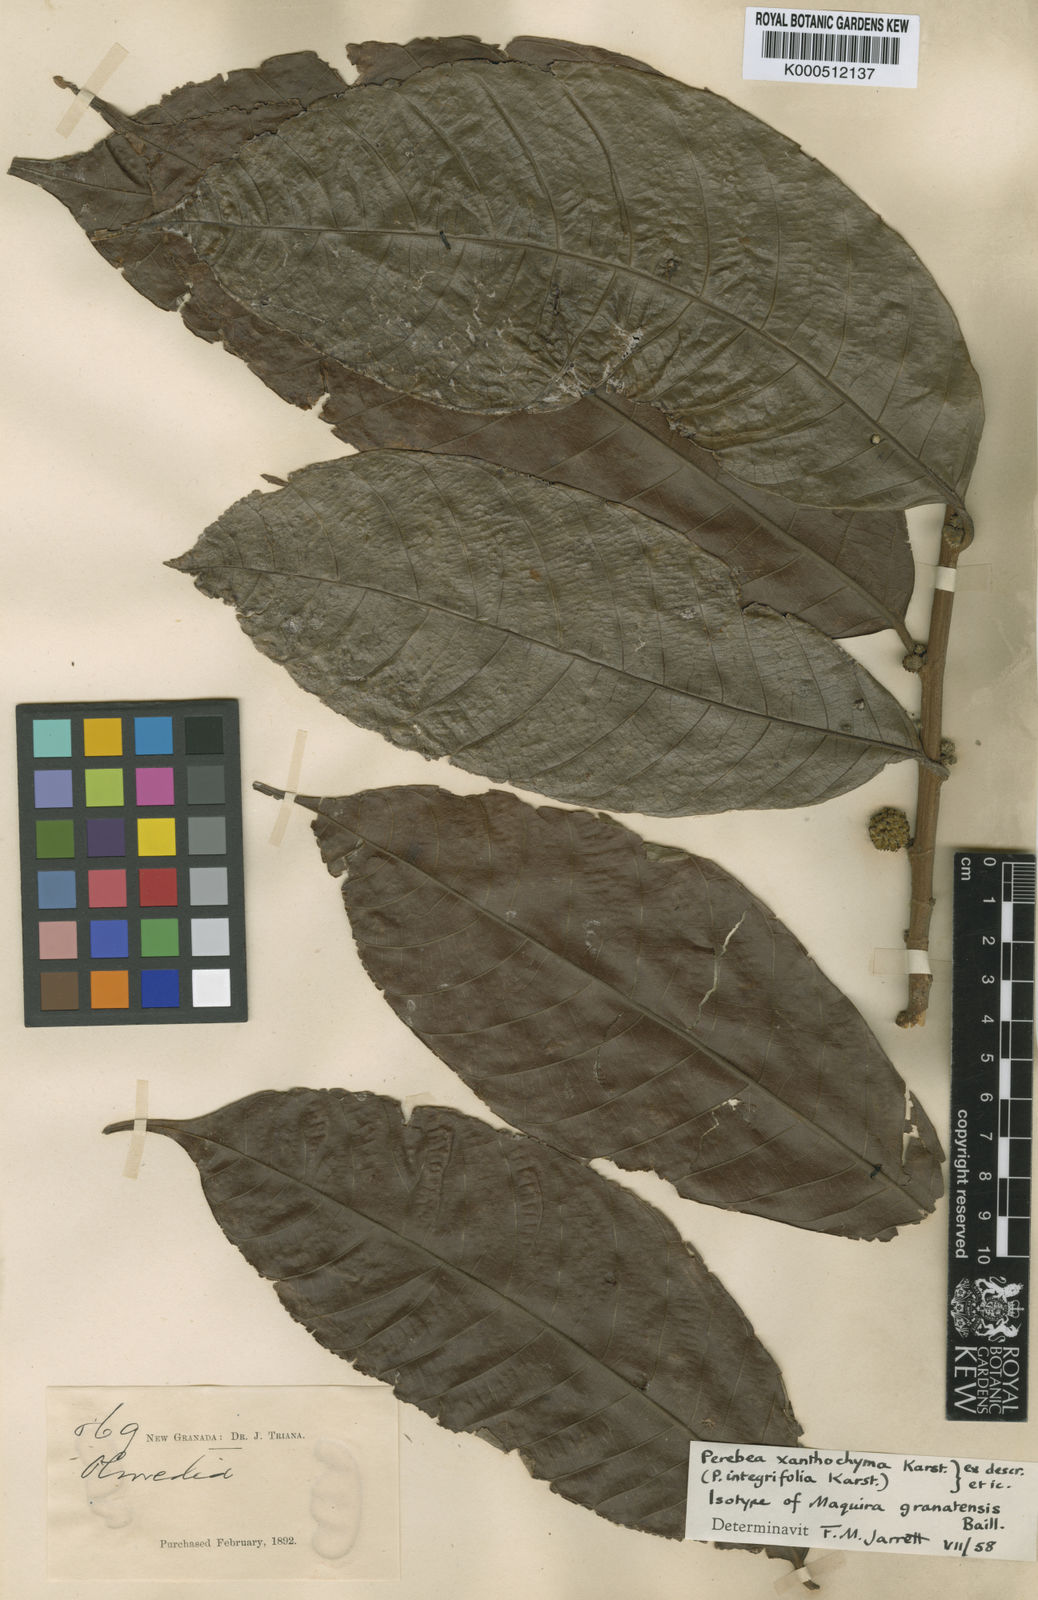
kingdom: Plantae
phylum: Tracheophyta
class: Magnoliopsida
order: Rosales
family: Moraceae
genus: Perebea
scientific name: Perebea xanthochyma
